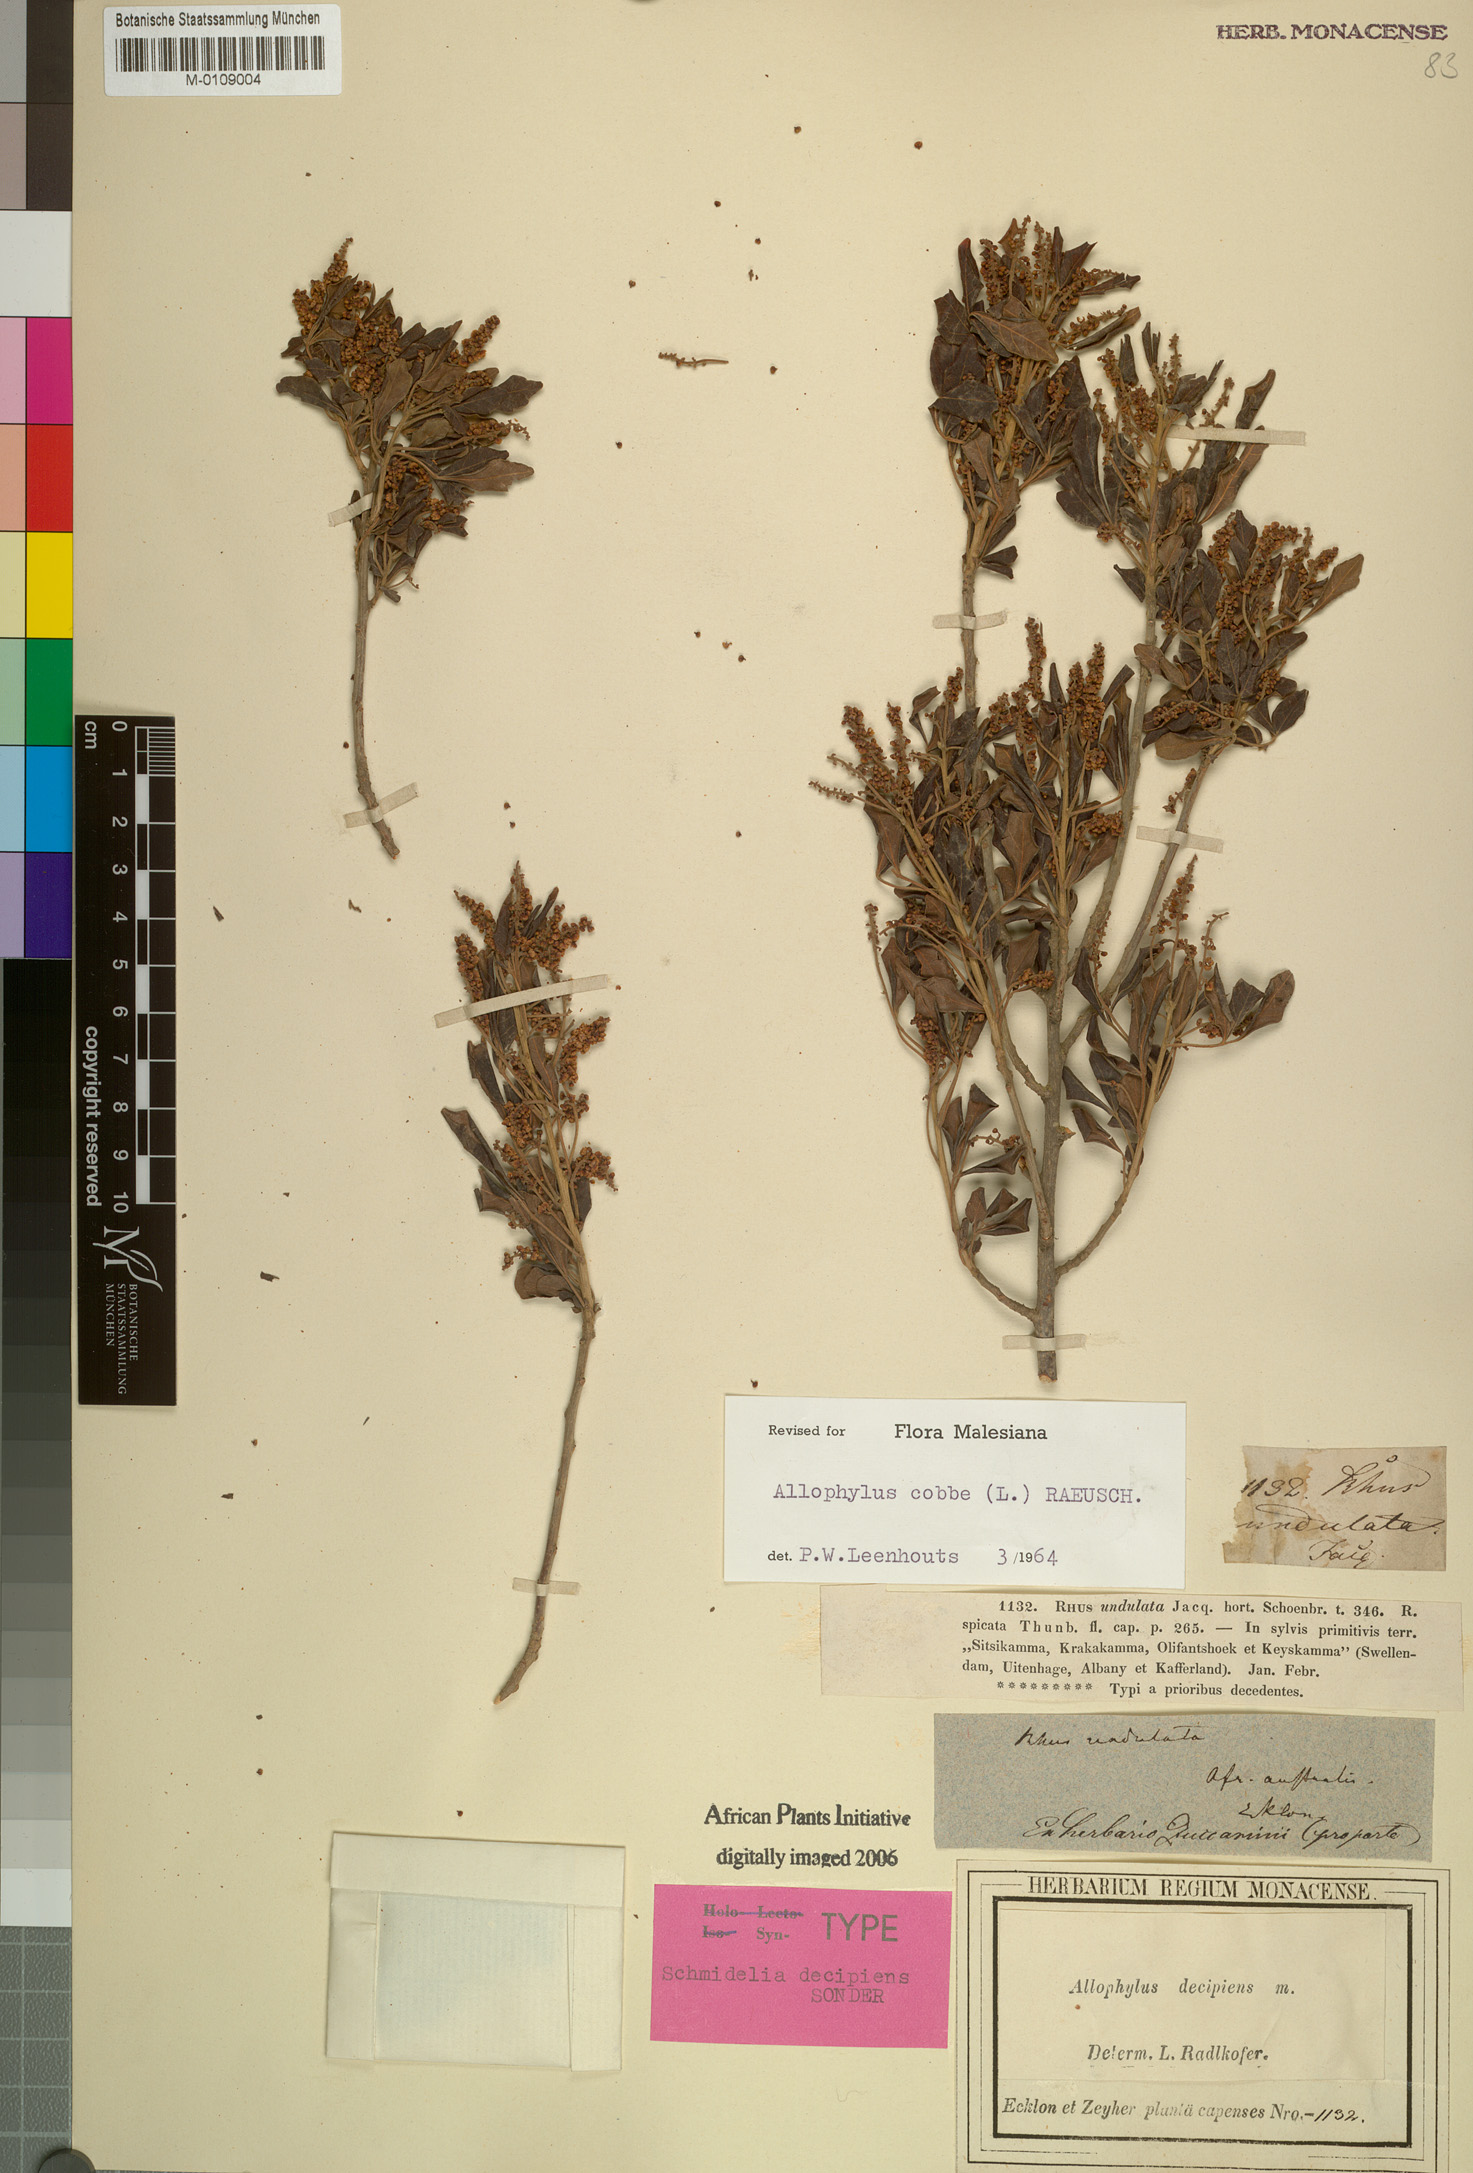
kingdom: Plantae
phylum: Tracheophyta
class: Magnoliopsida
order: Sapindales
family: Sapindaceae
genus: Allophylus
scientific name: Allophylus cobbe
